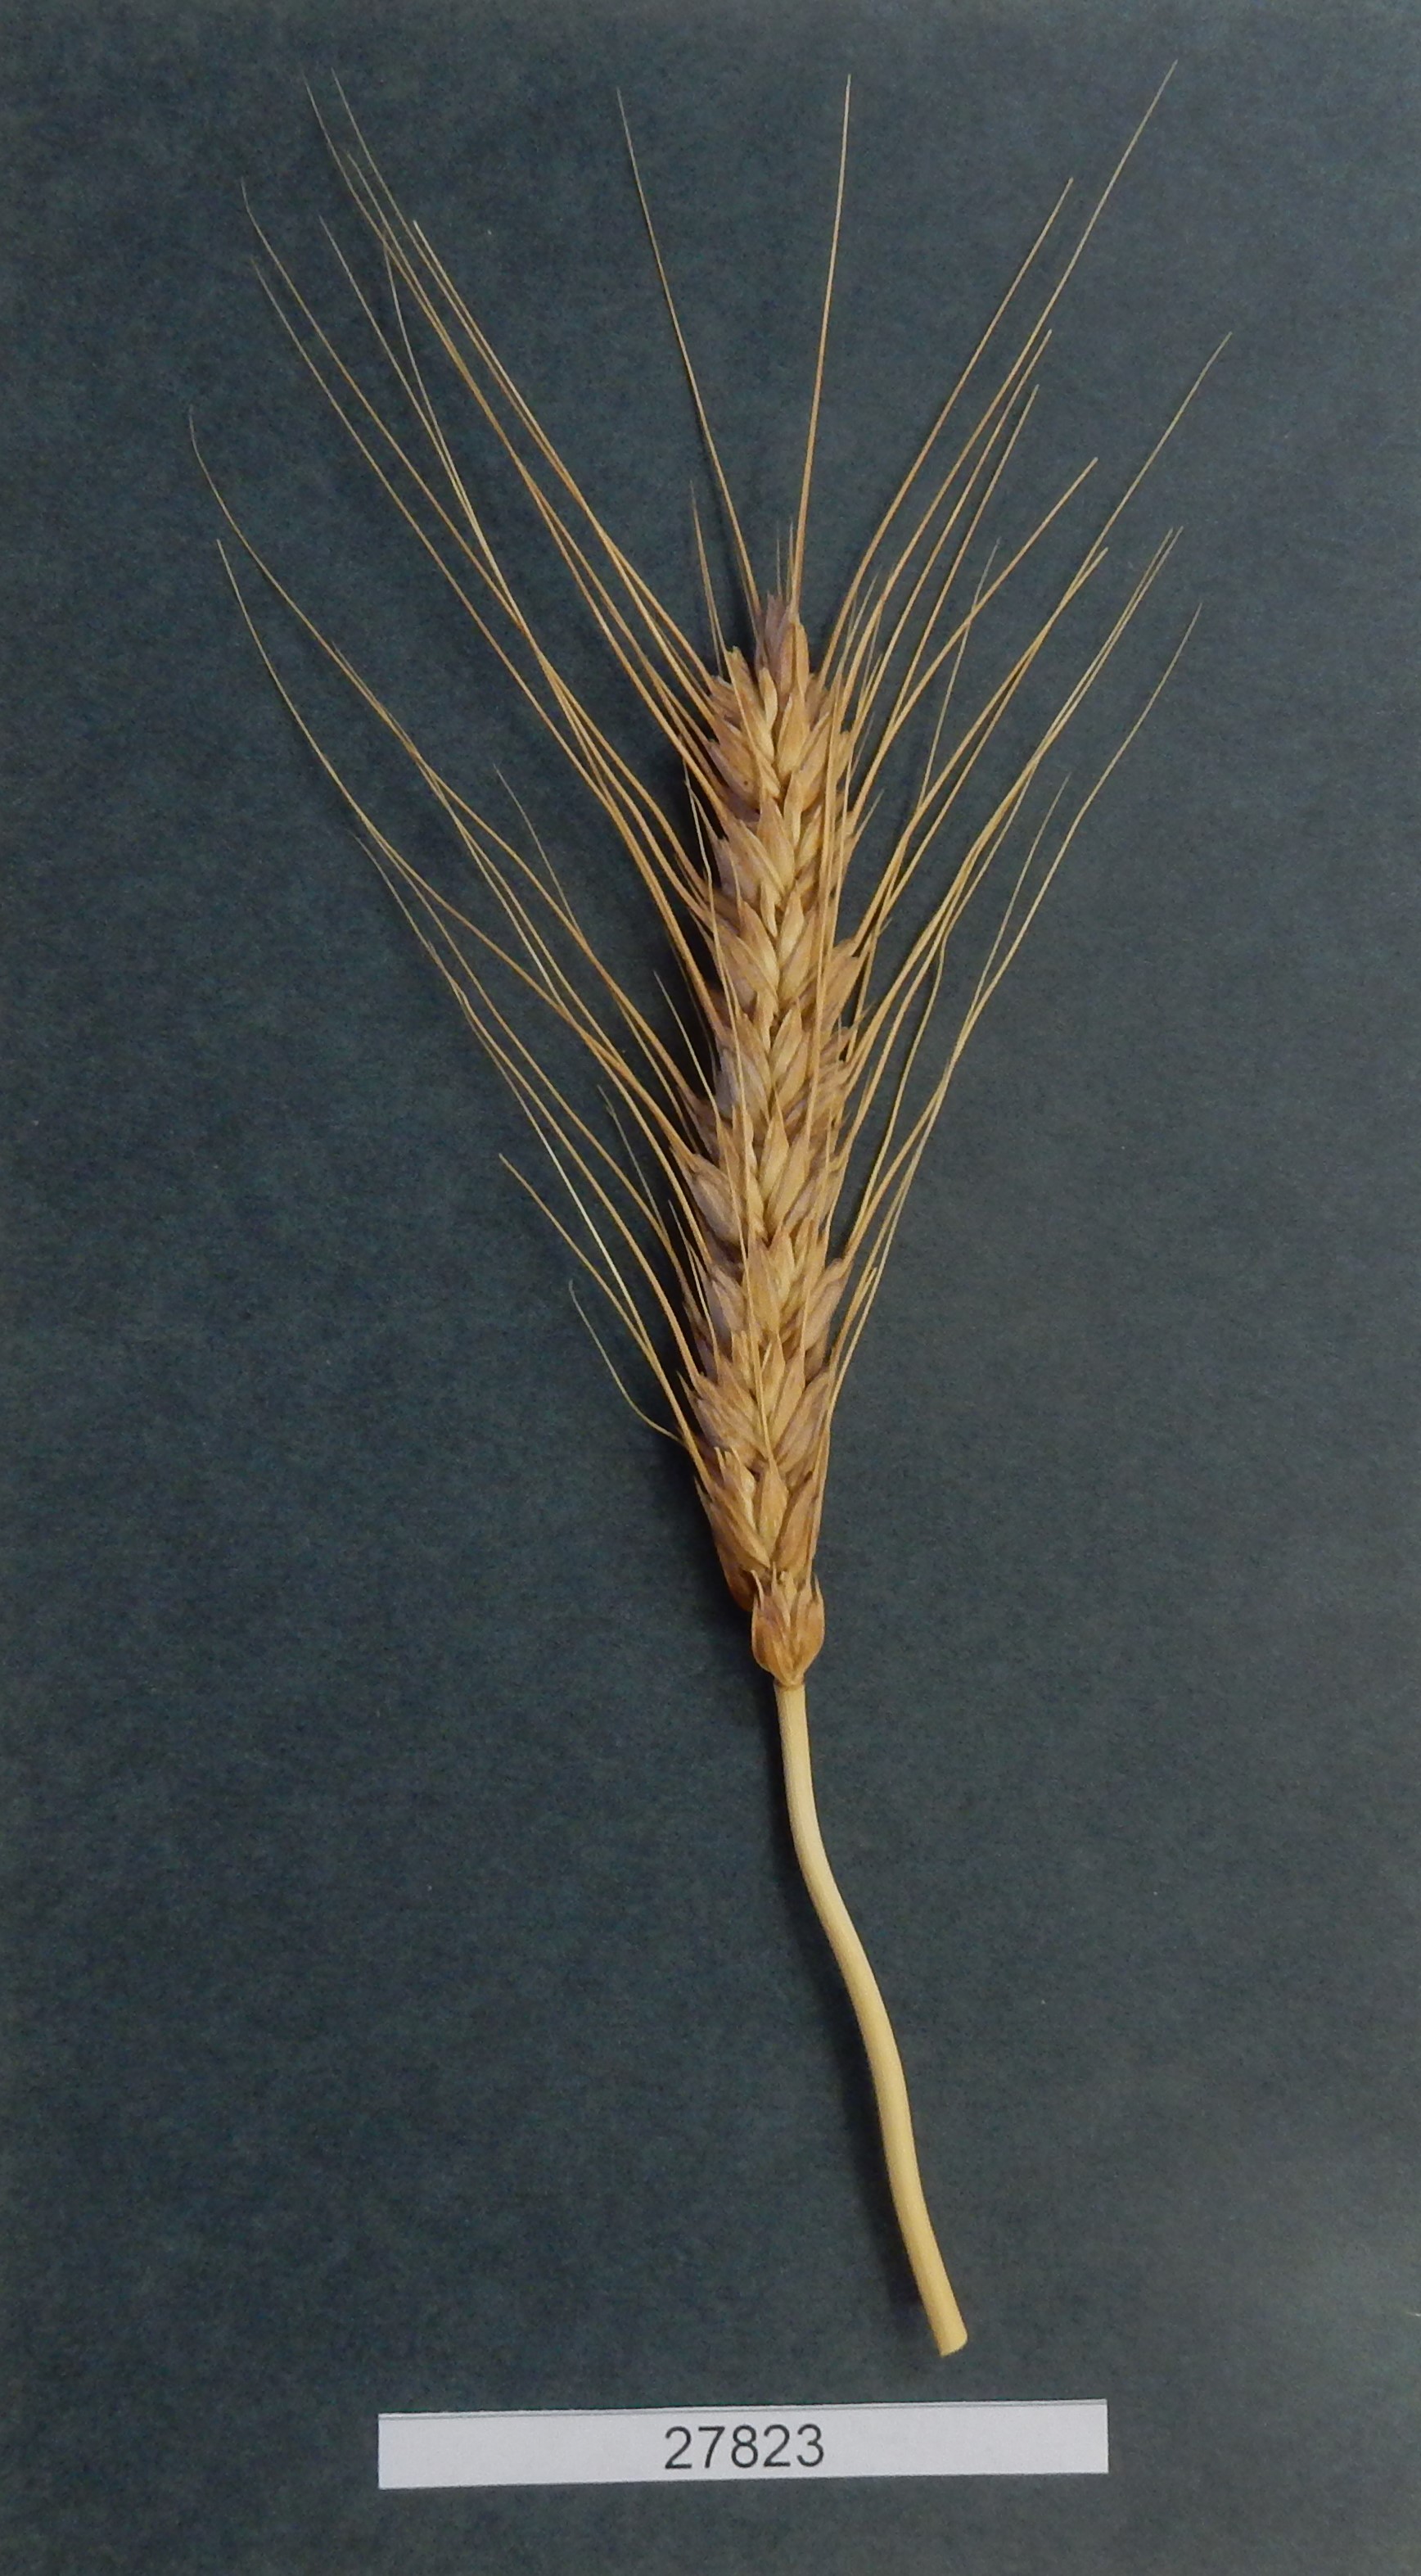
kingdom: Plantae
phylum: Tracheophyta
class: Liliopsida
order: Poales
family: Poaceae
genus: Triticum
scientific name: Triticum aestivum
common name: Common wheat
